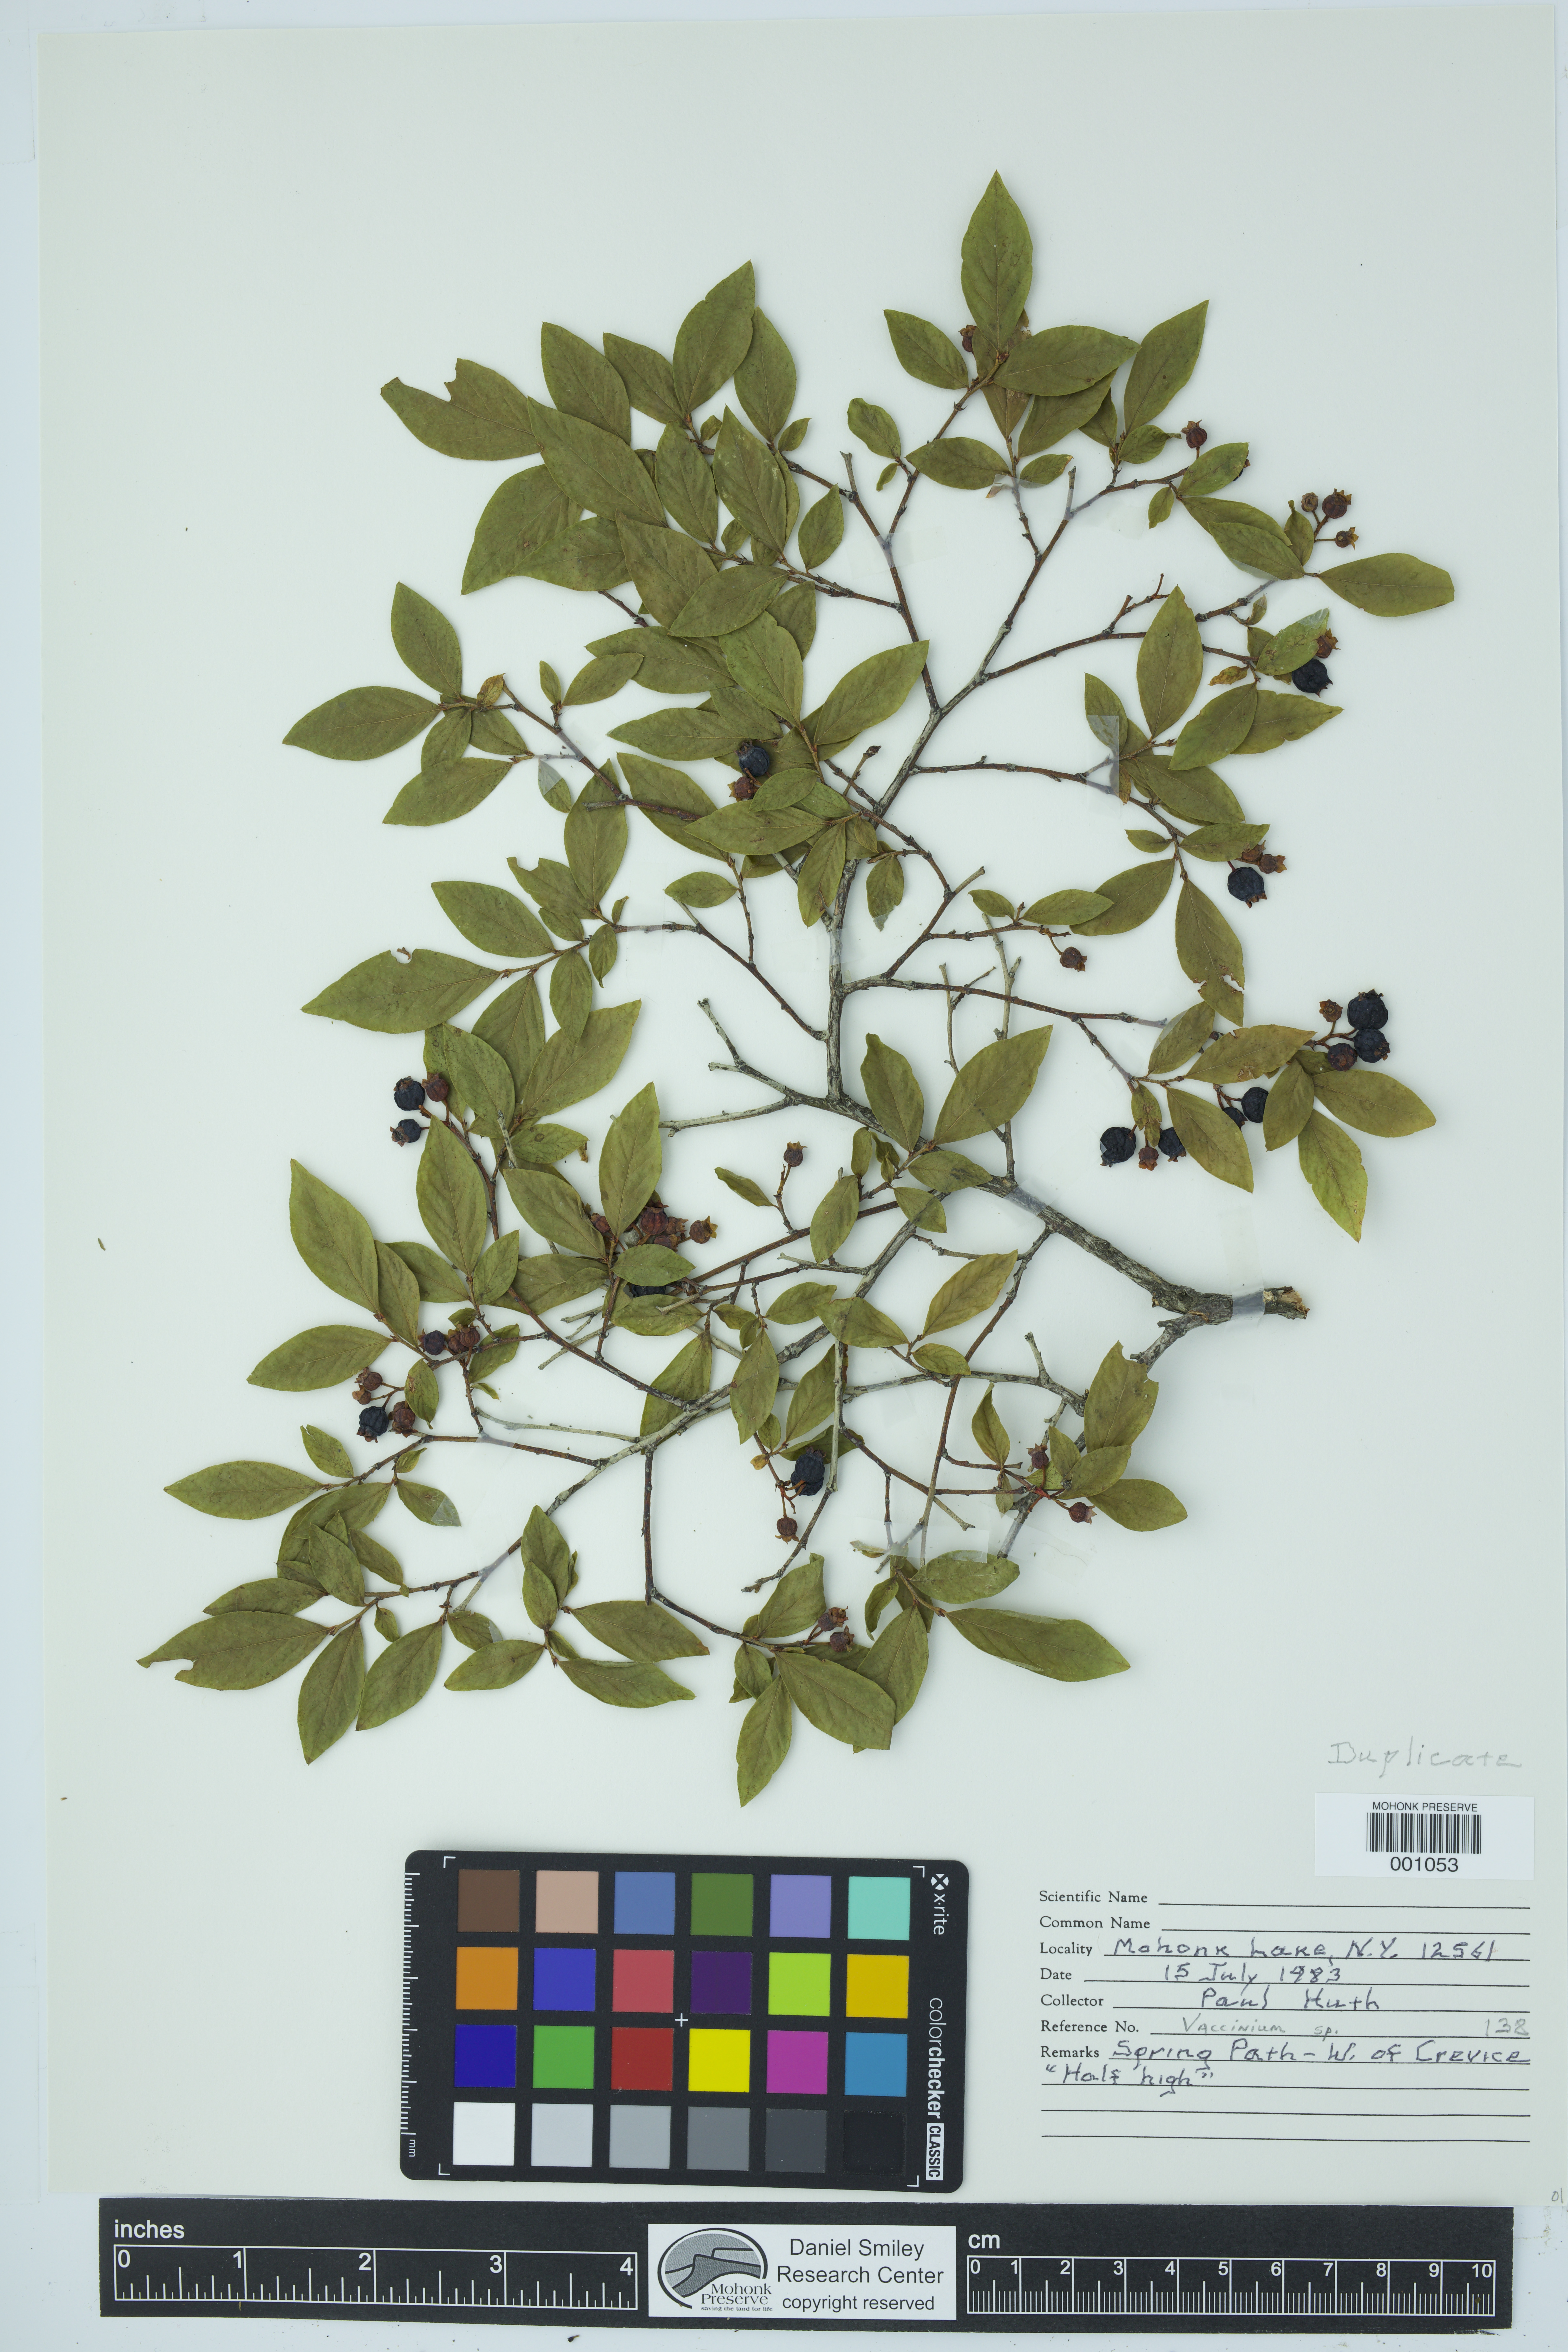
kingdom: Plantae
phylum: Tracheophyta
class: Magnoliopsida
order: Ericales
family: Ericaceae
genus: Vaccinium
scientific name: Vaccinium
